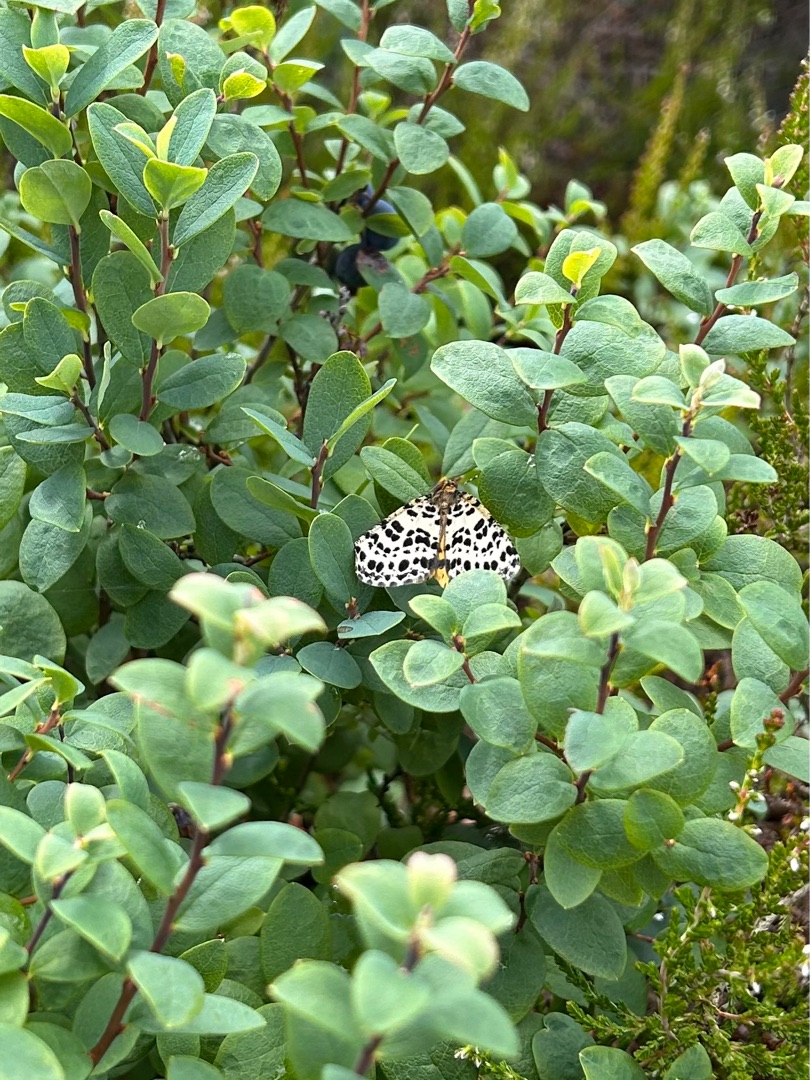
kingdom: Animalia
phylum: Arthropoda
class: Insecta
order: Lepidoptera
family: Geometridae
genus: Arichanna
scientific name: Arichanna melanaria
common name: Mose-harlekin
